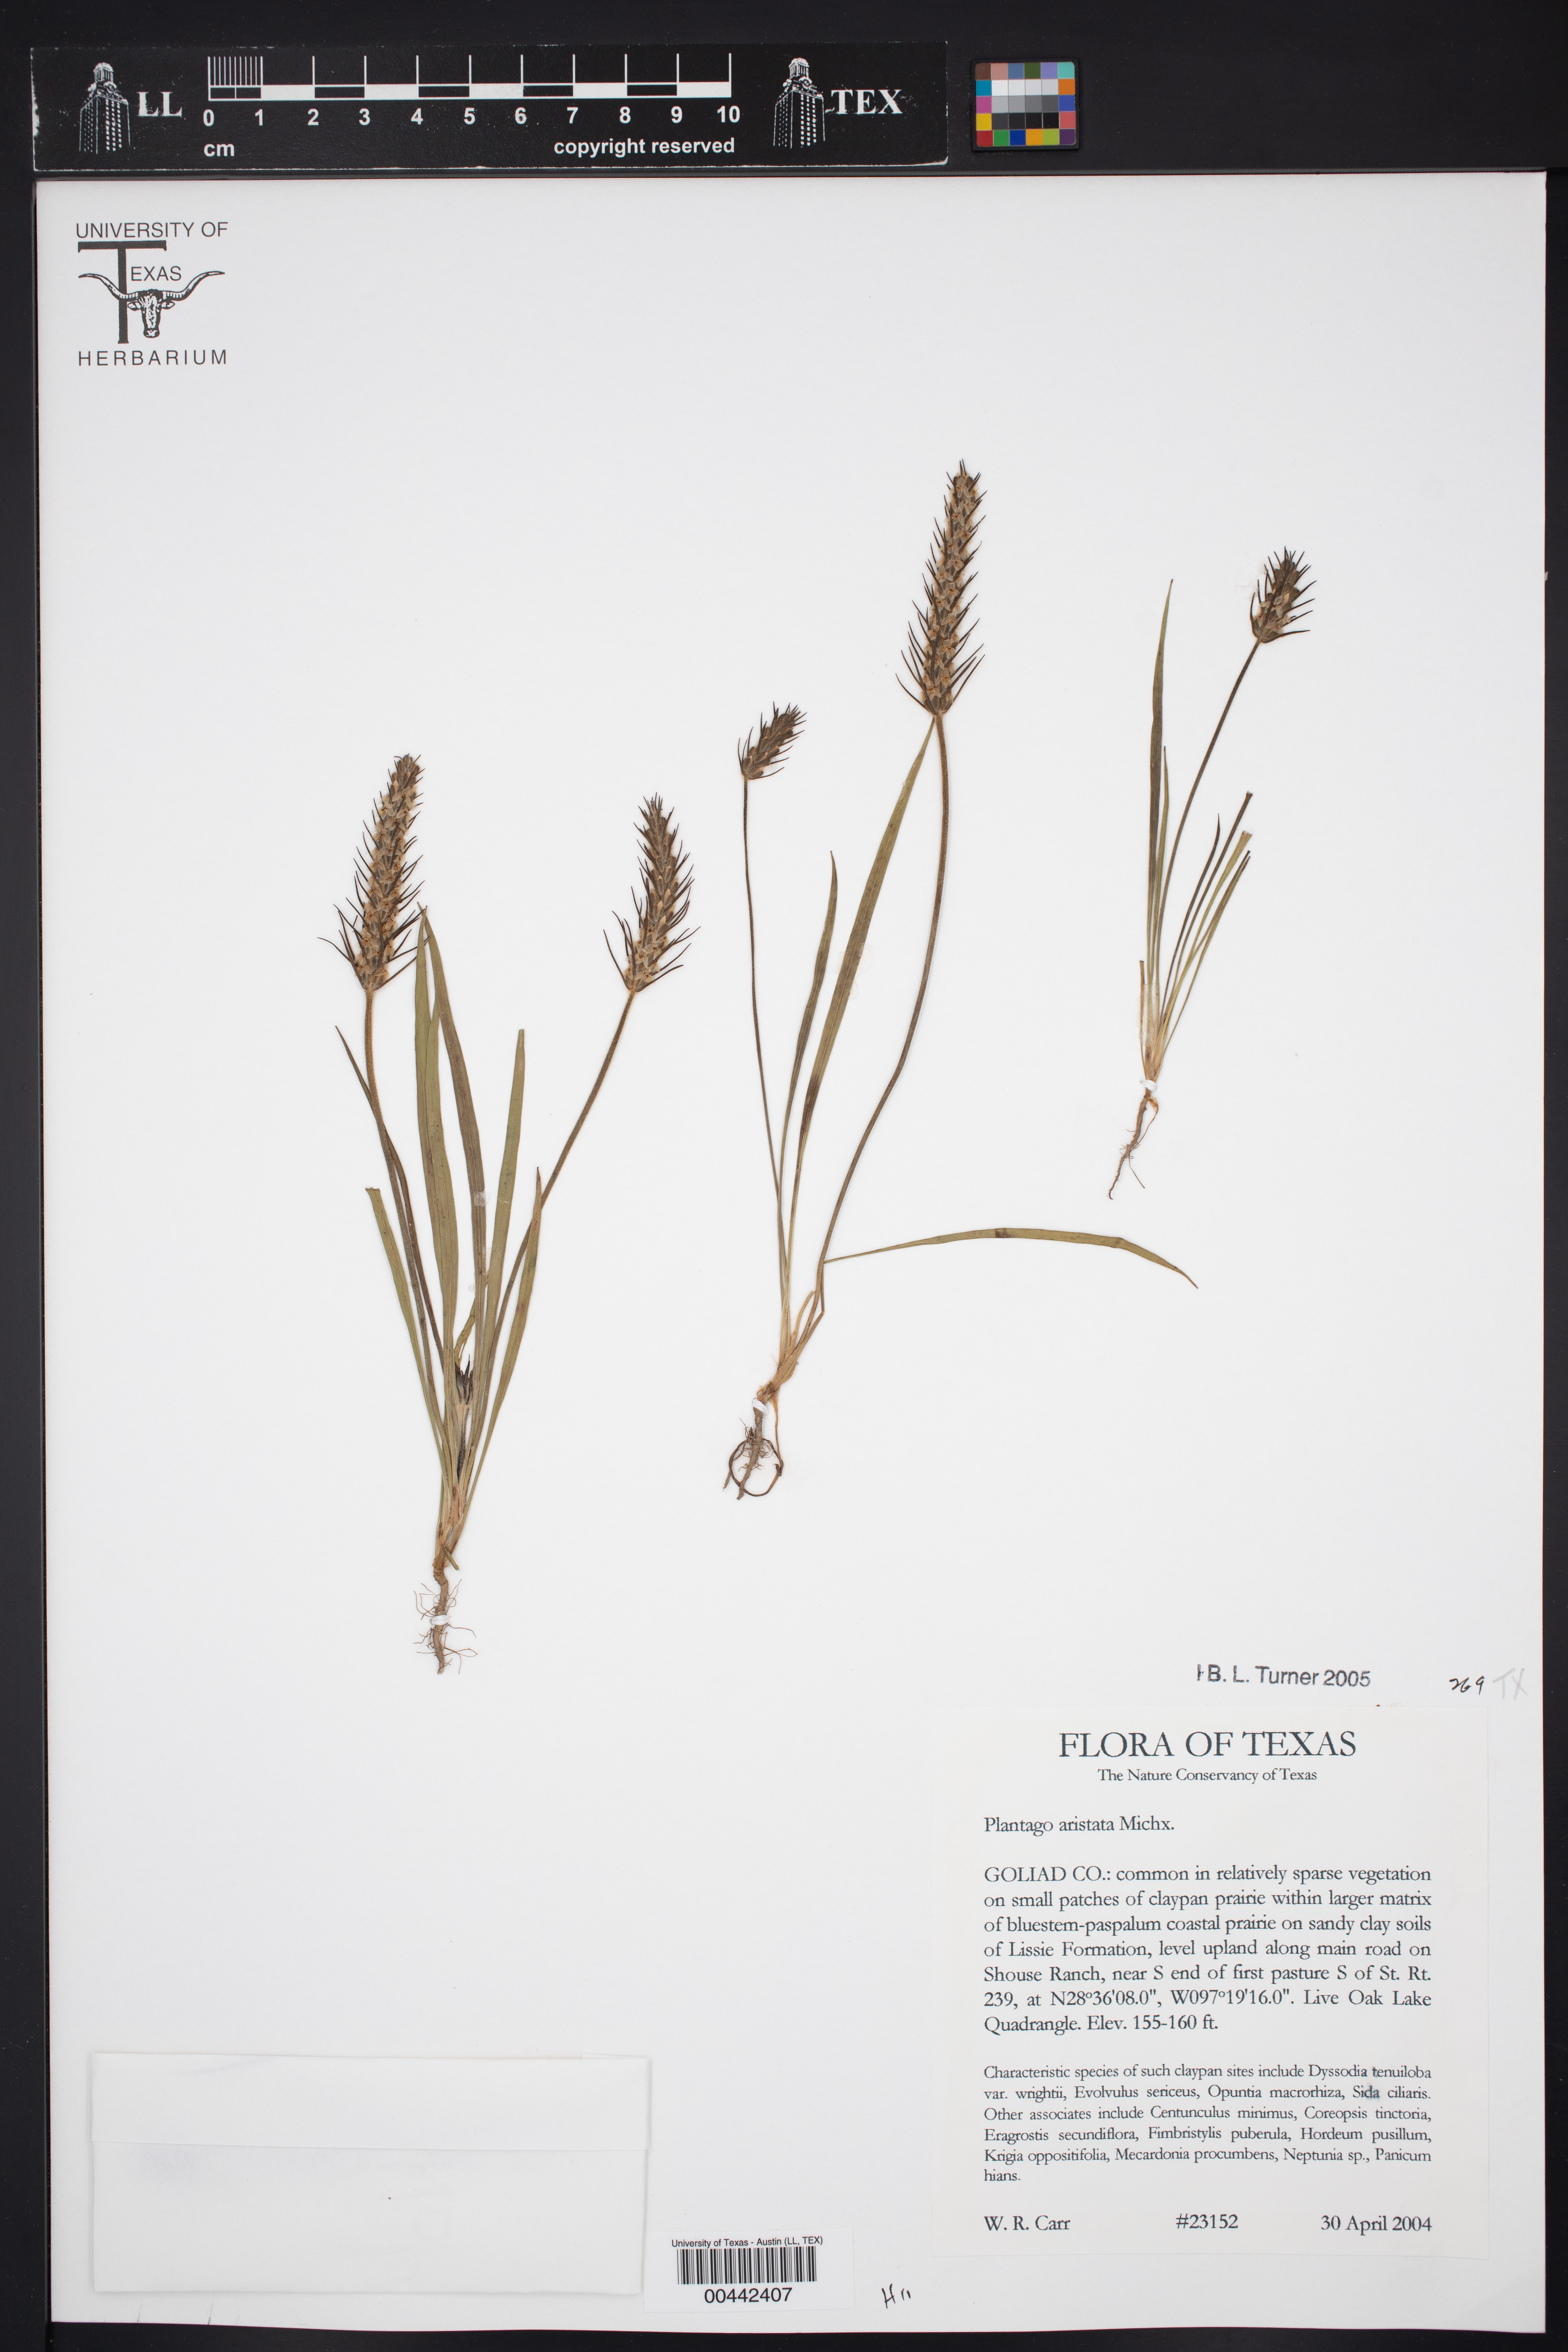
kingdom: Plantae
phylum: Tracheophyta
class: Magnoliopsida
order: Lamiales
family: Plantaginaceae
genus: Plantago
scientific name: Plantago aristata
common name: Bracted plantain
